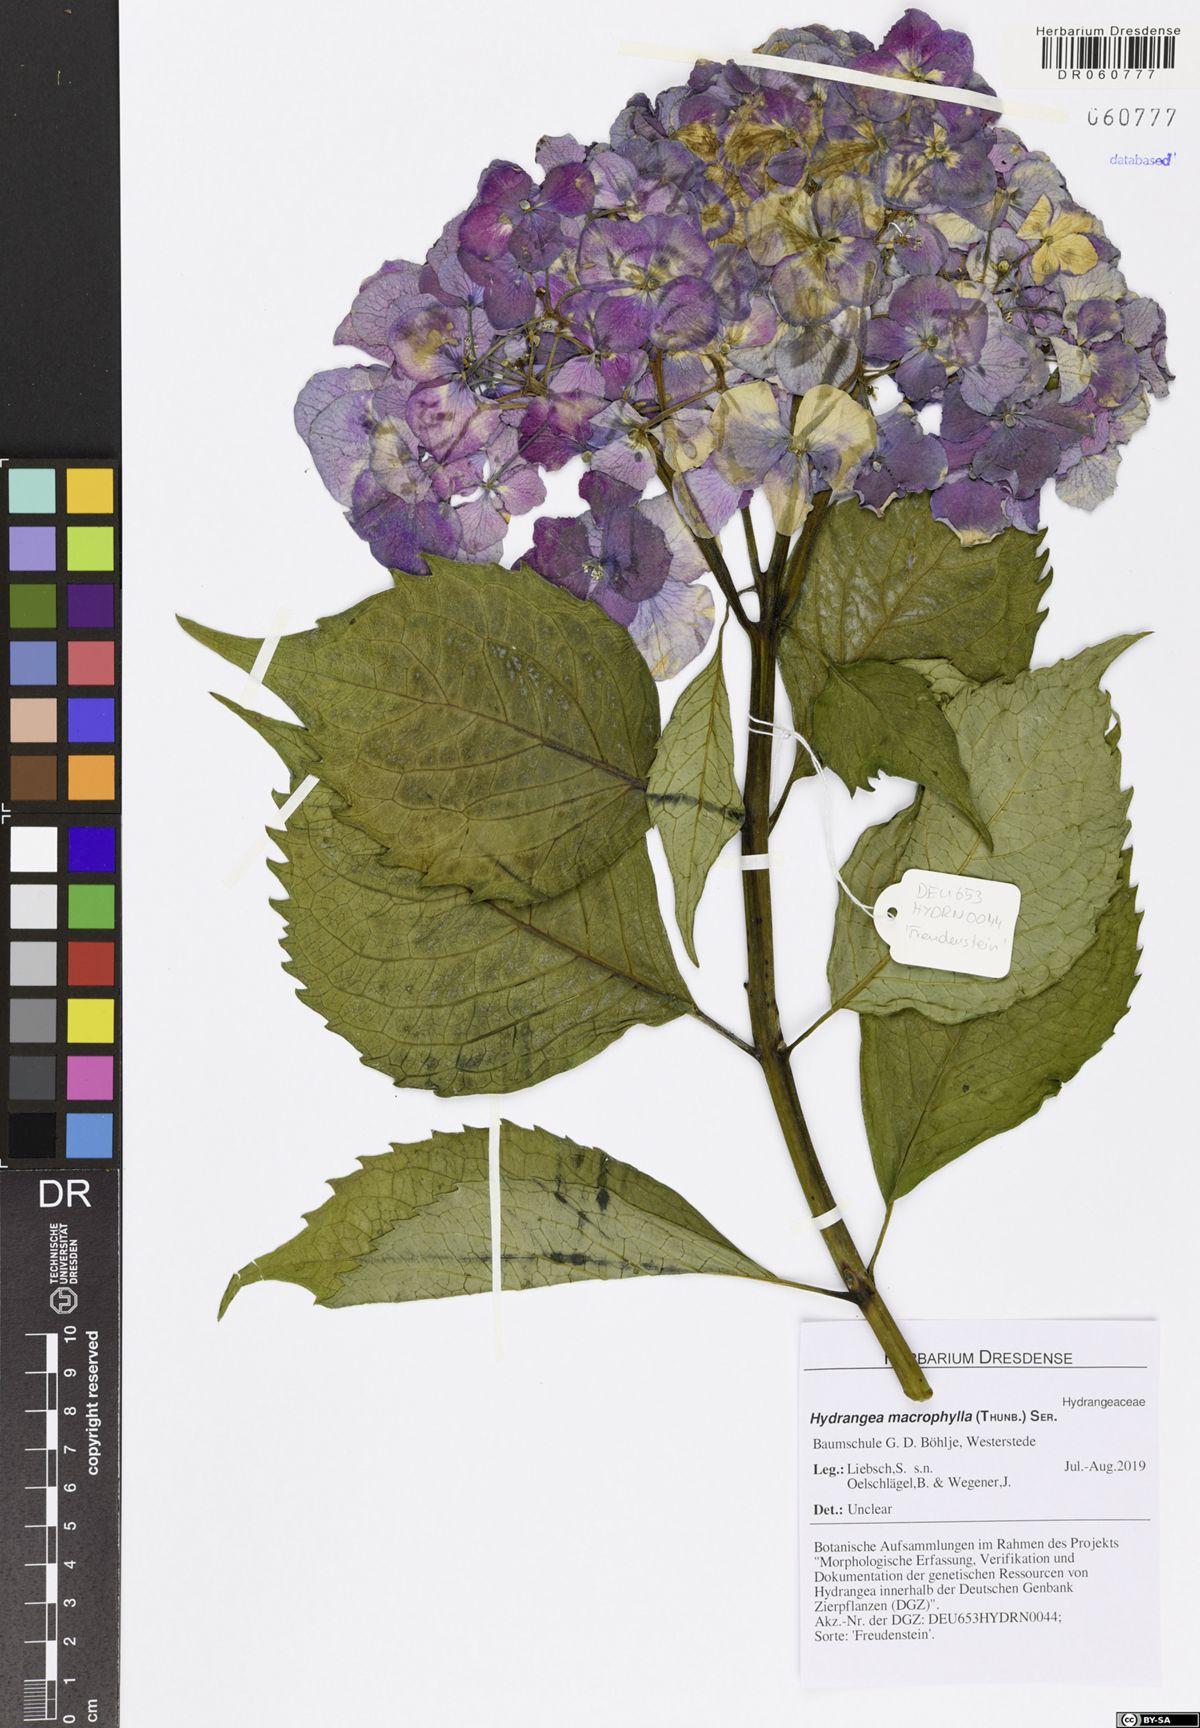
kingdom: Plantae
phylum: Tracheophyta
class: Magnoliopsida
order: Cornales
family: Hydrangeaceae
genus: Hydrangea
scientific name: Hydrangea macrophylla
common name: Hydrangea
